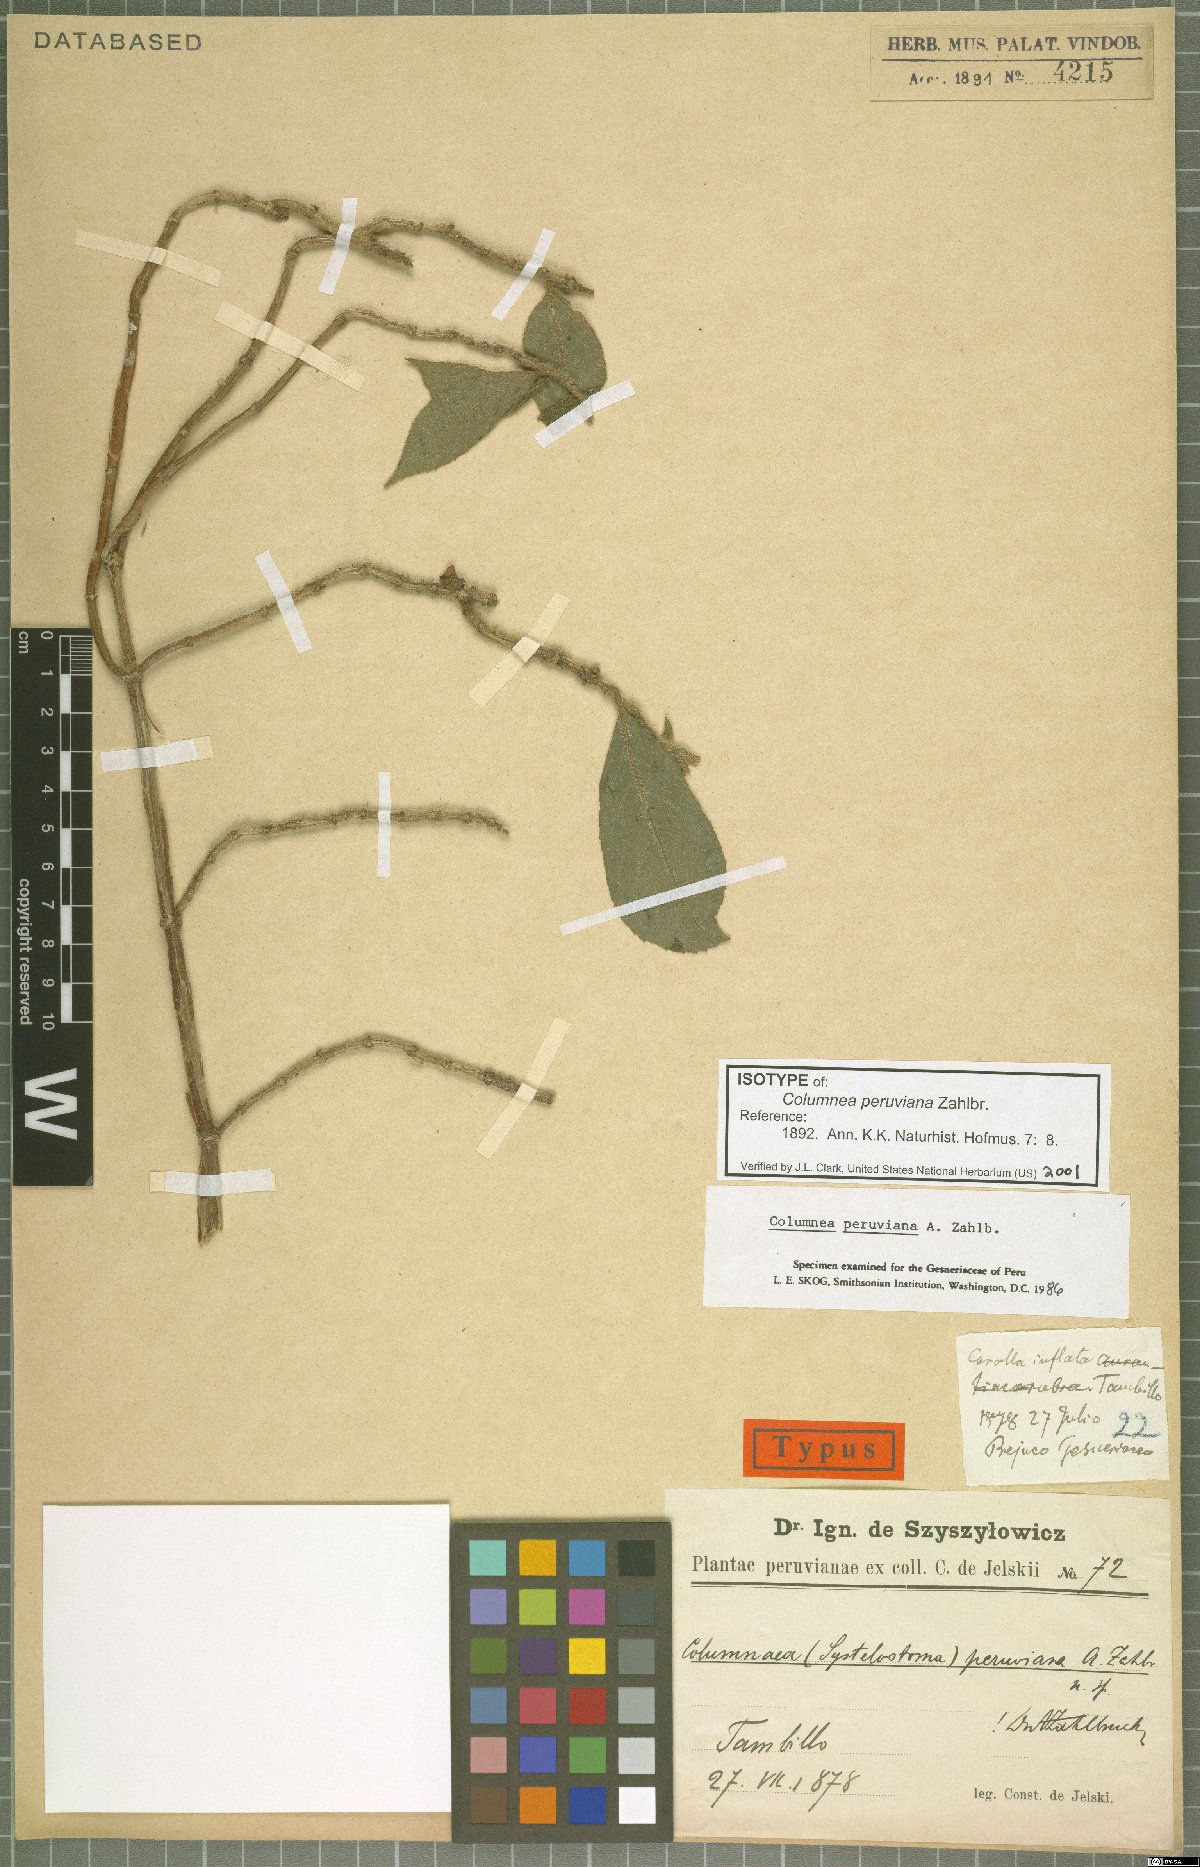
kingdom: Plantae
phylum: Tracheophyta
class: Magnoliopsida
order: Lamiales
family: Gesneriaceae
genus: Columnea
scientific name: Columnea peruviana
